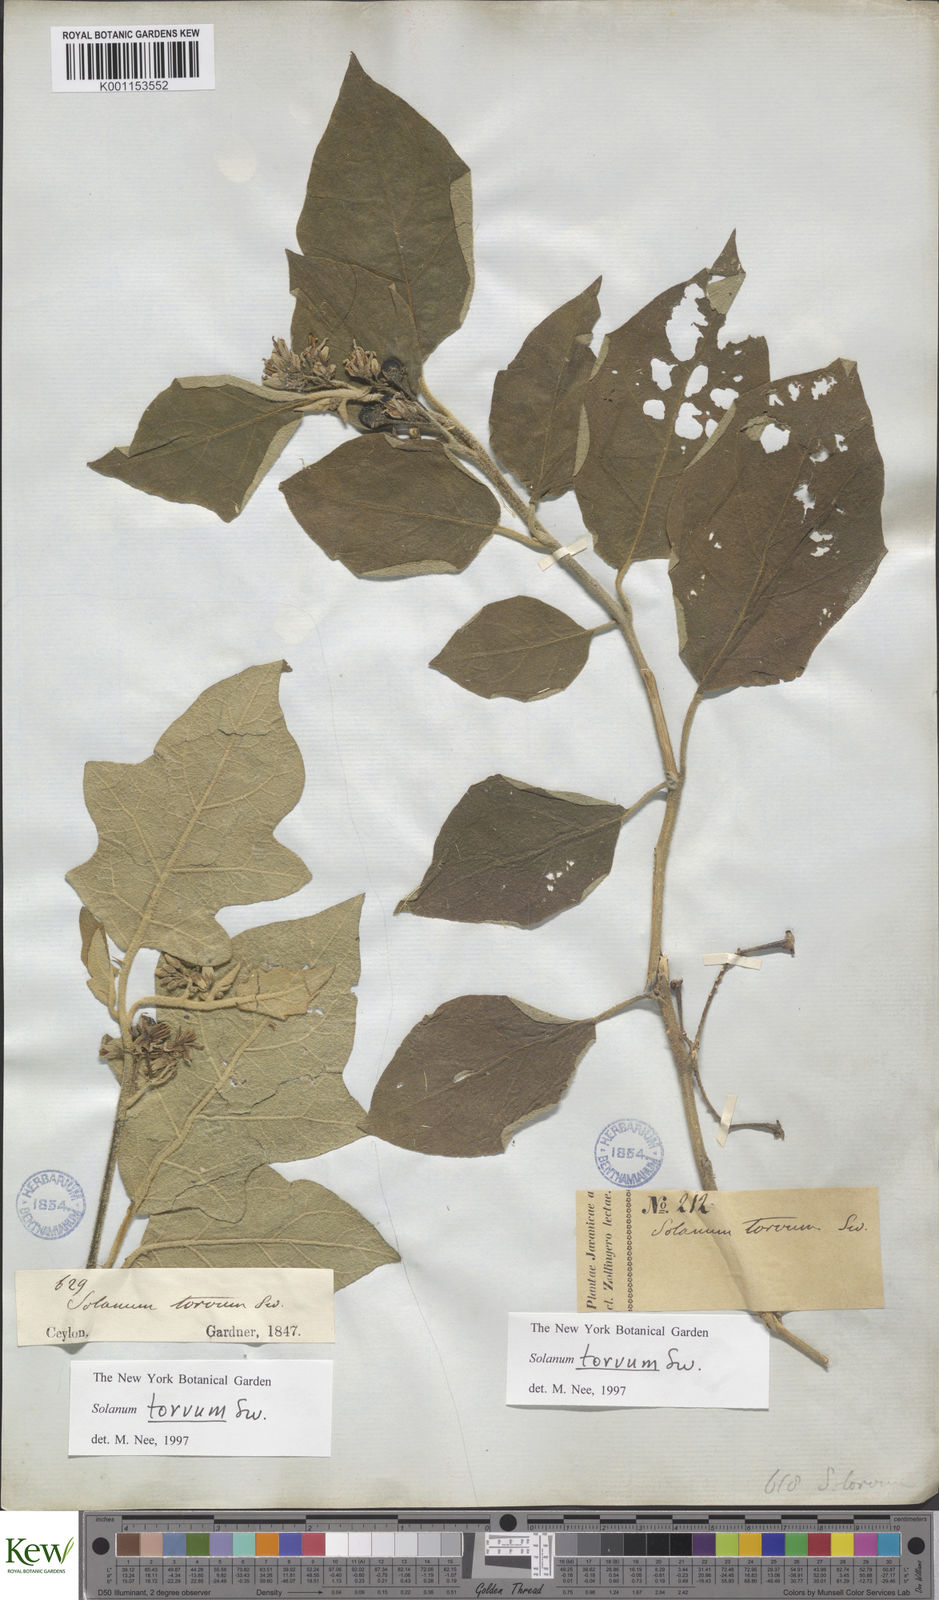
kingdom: Plantae
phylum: Tracheophyta
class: Magnoliopsida
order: Solanales
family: Solanaceae
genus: Solanum
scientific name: Solanum torvum
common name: Turkey berry
